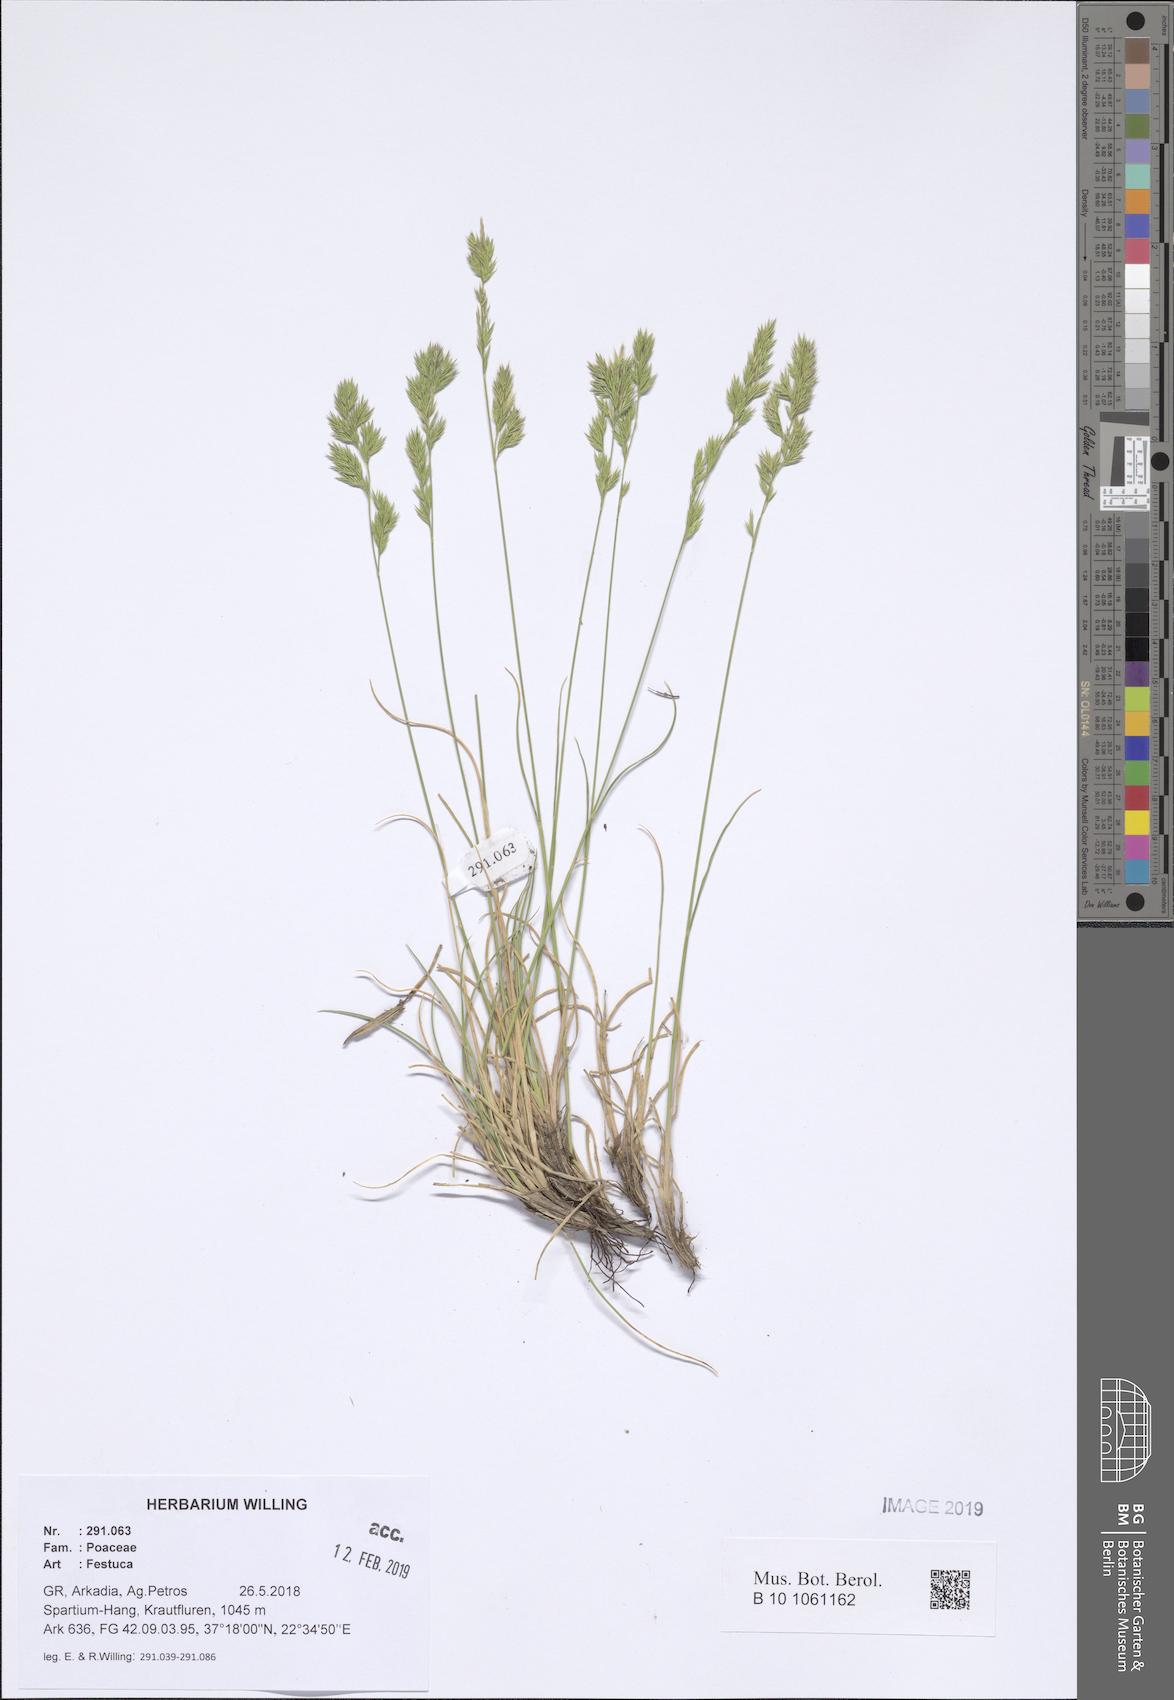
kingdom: Plantae
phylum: Tracheophyta
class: Liliopsida
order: Poales
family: Poaceae
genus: Festuca
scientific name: Festuca
